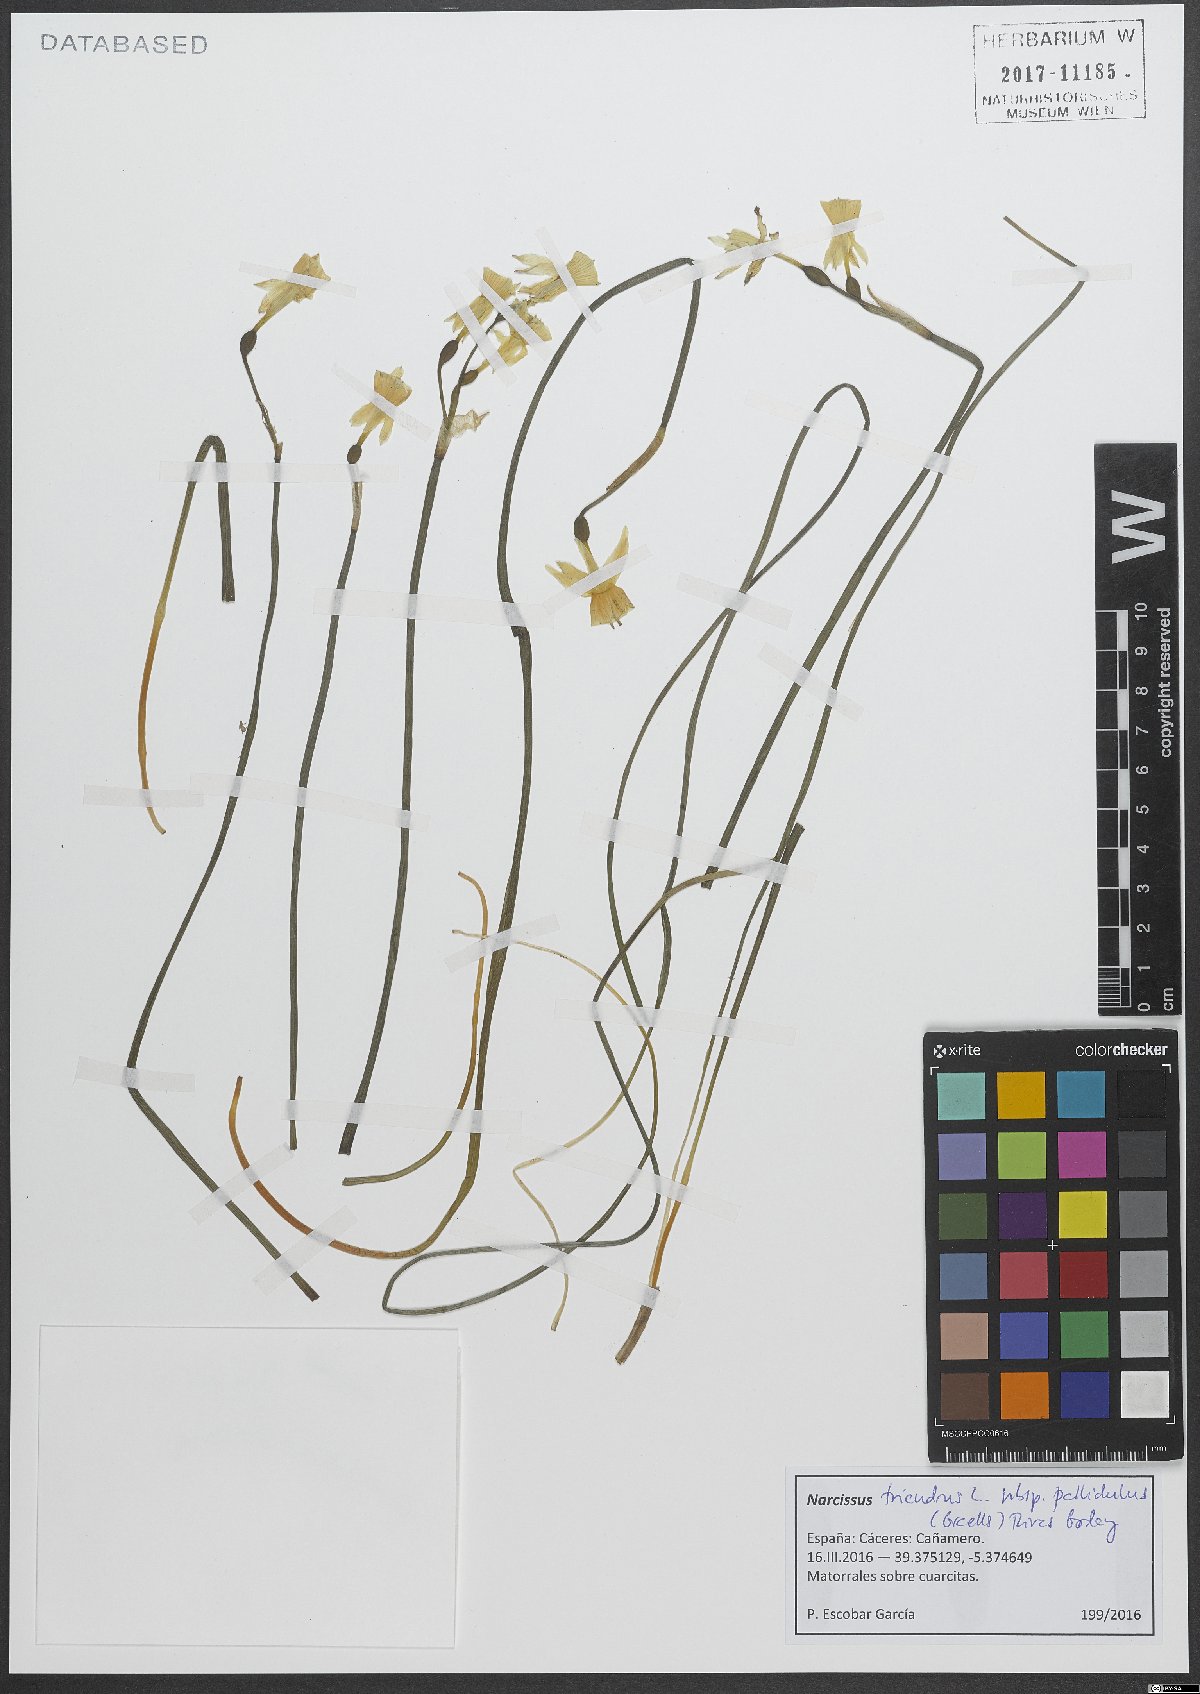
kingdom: Plantae
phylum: Tracheophyta
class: Liliopsida
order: Asparagales
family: Amaryllidaceae
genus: Narcissus
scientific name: Narcissus triandrus
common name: Angel's-tears
